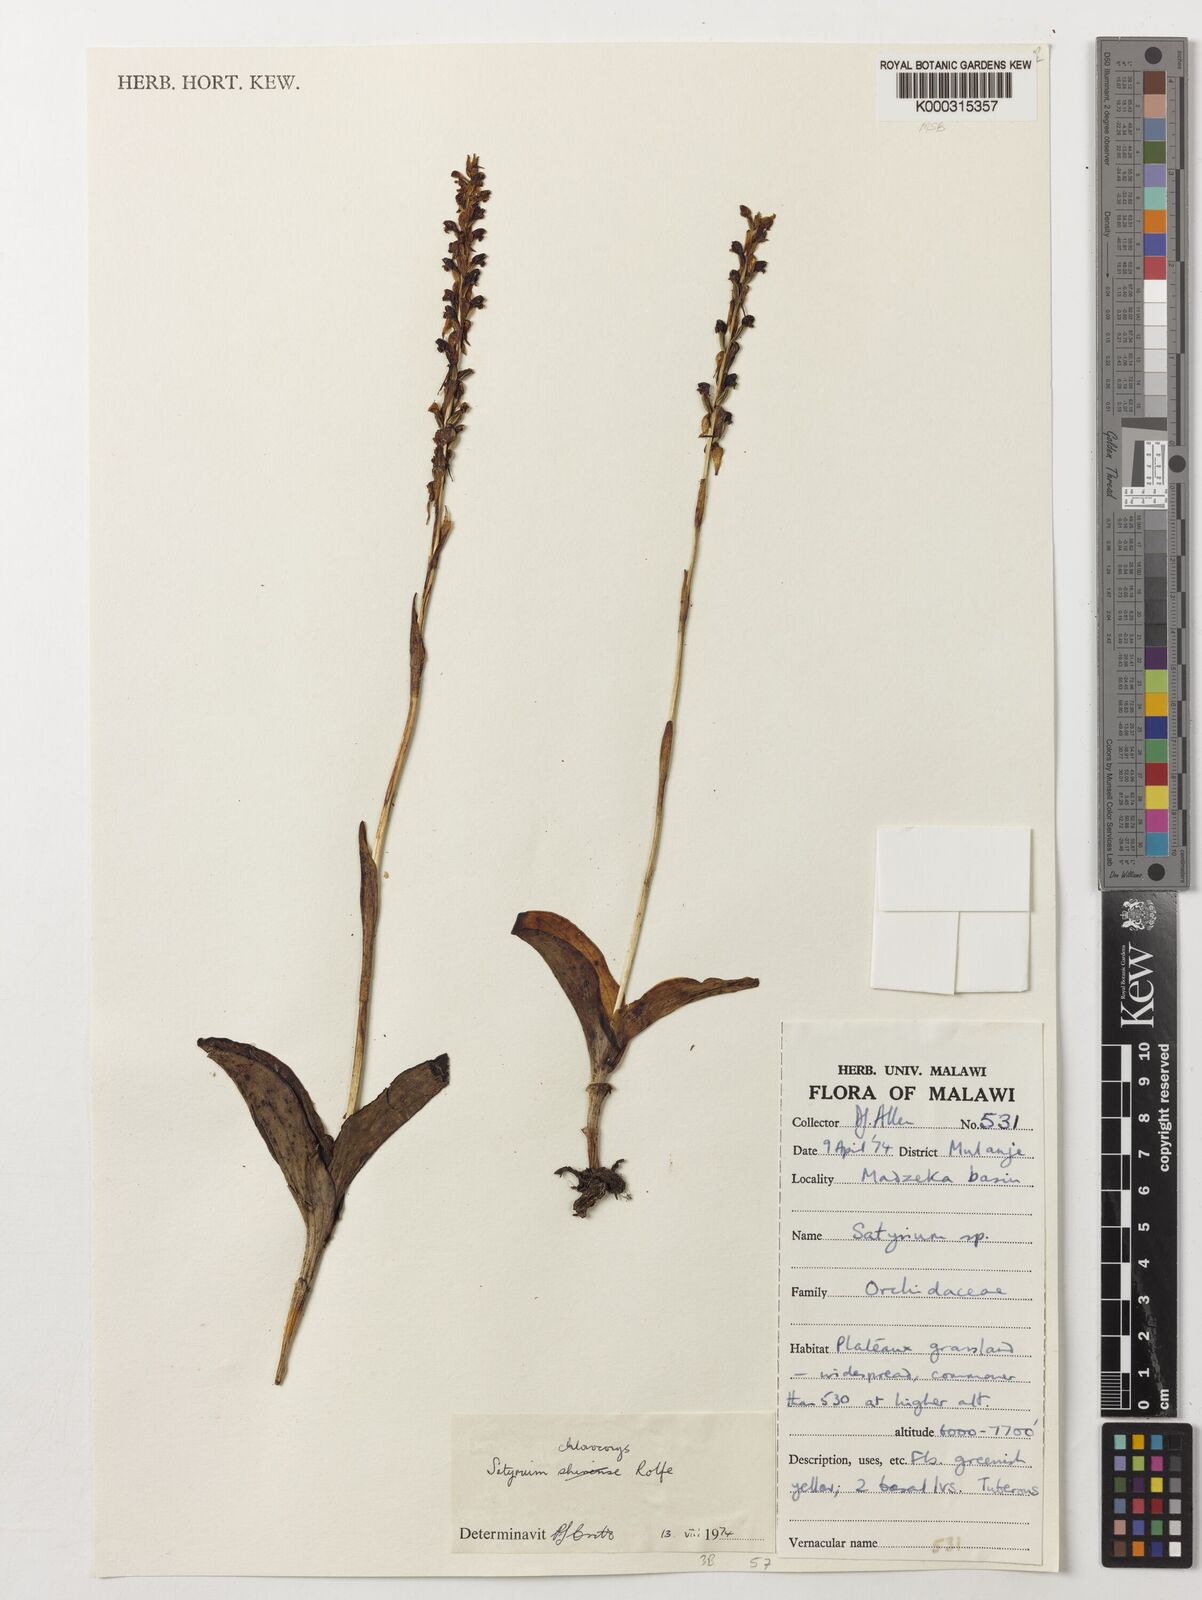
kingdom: Plantae
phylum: Tracheophyta
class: Liliopsida
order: Asparagales
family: Orchidaceae
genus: Satyrium
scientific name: Satyrium shirense
